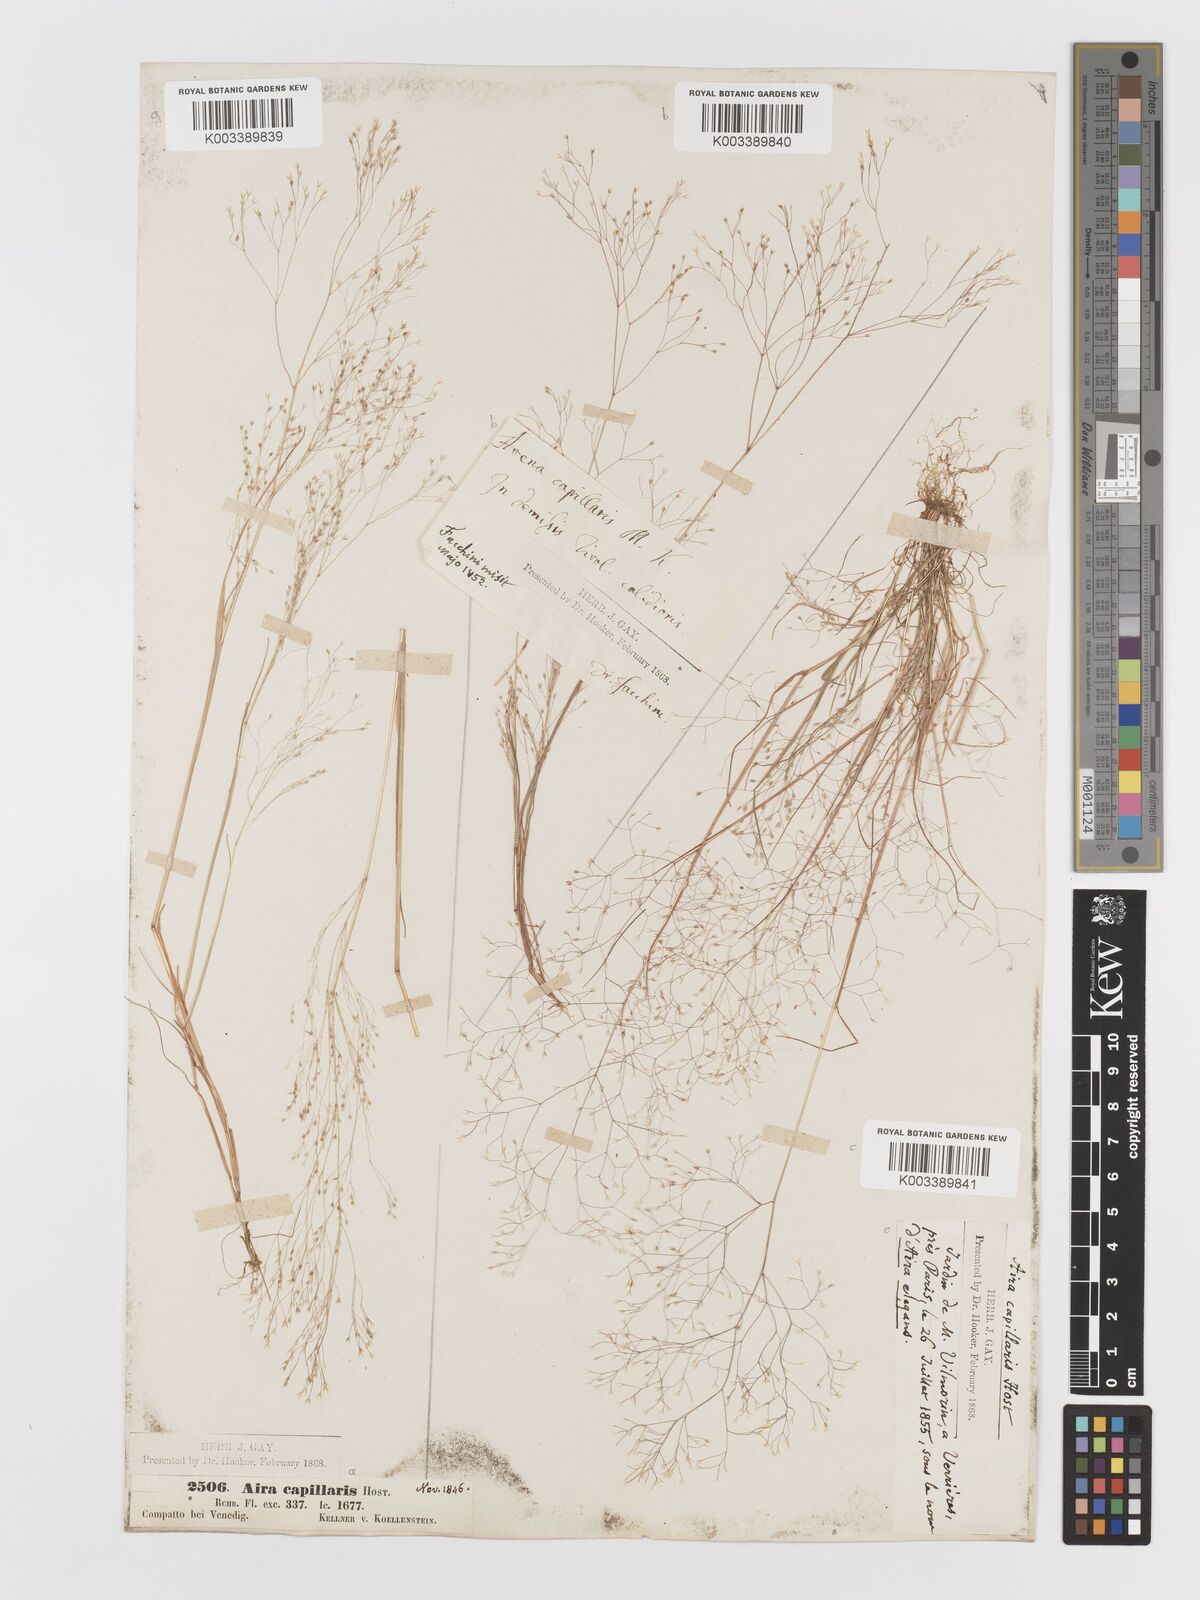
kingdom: Plantae
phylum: Tracheophyta
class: Liliopsida
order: Poales
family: Poaceae
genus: Aira
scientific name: Aira elegans
